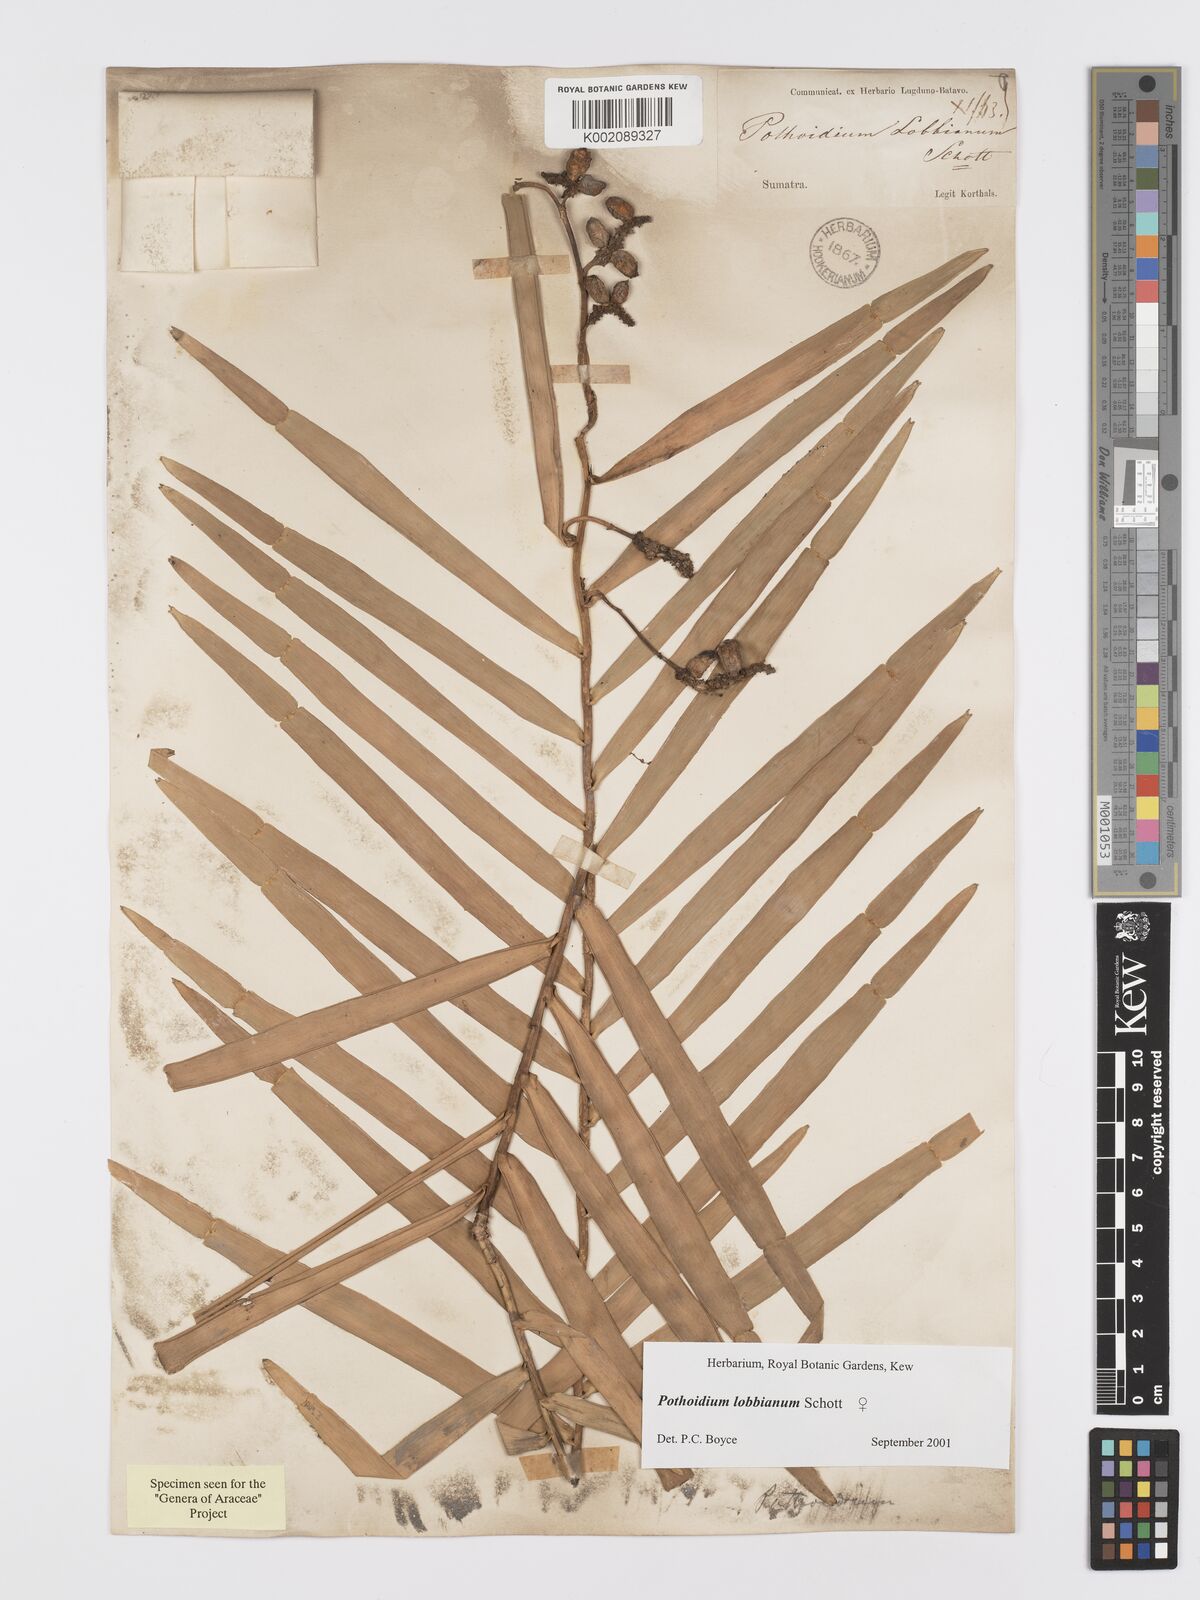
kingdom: Plantae
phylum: Tracheophyta
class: Liliopsida
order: Alismatales
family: Araceae
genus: Pothoidium
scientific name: Pothoidium lobbianum
